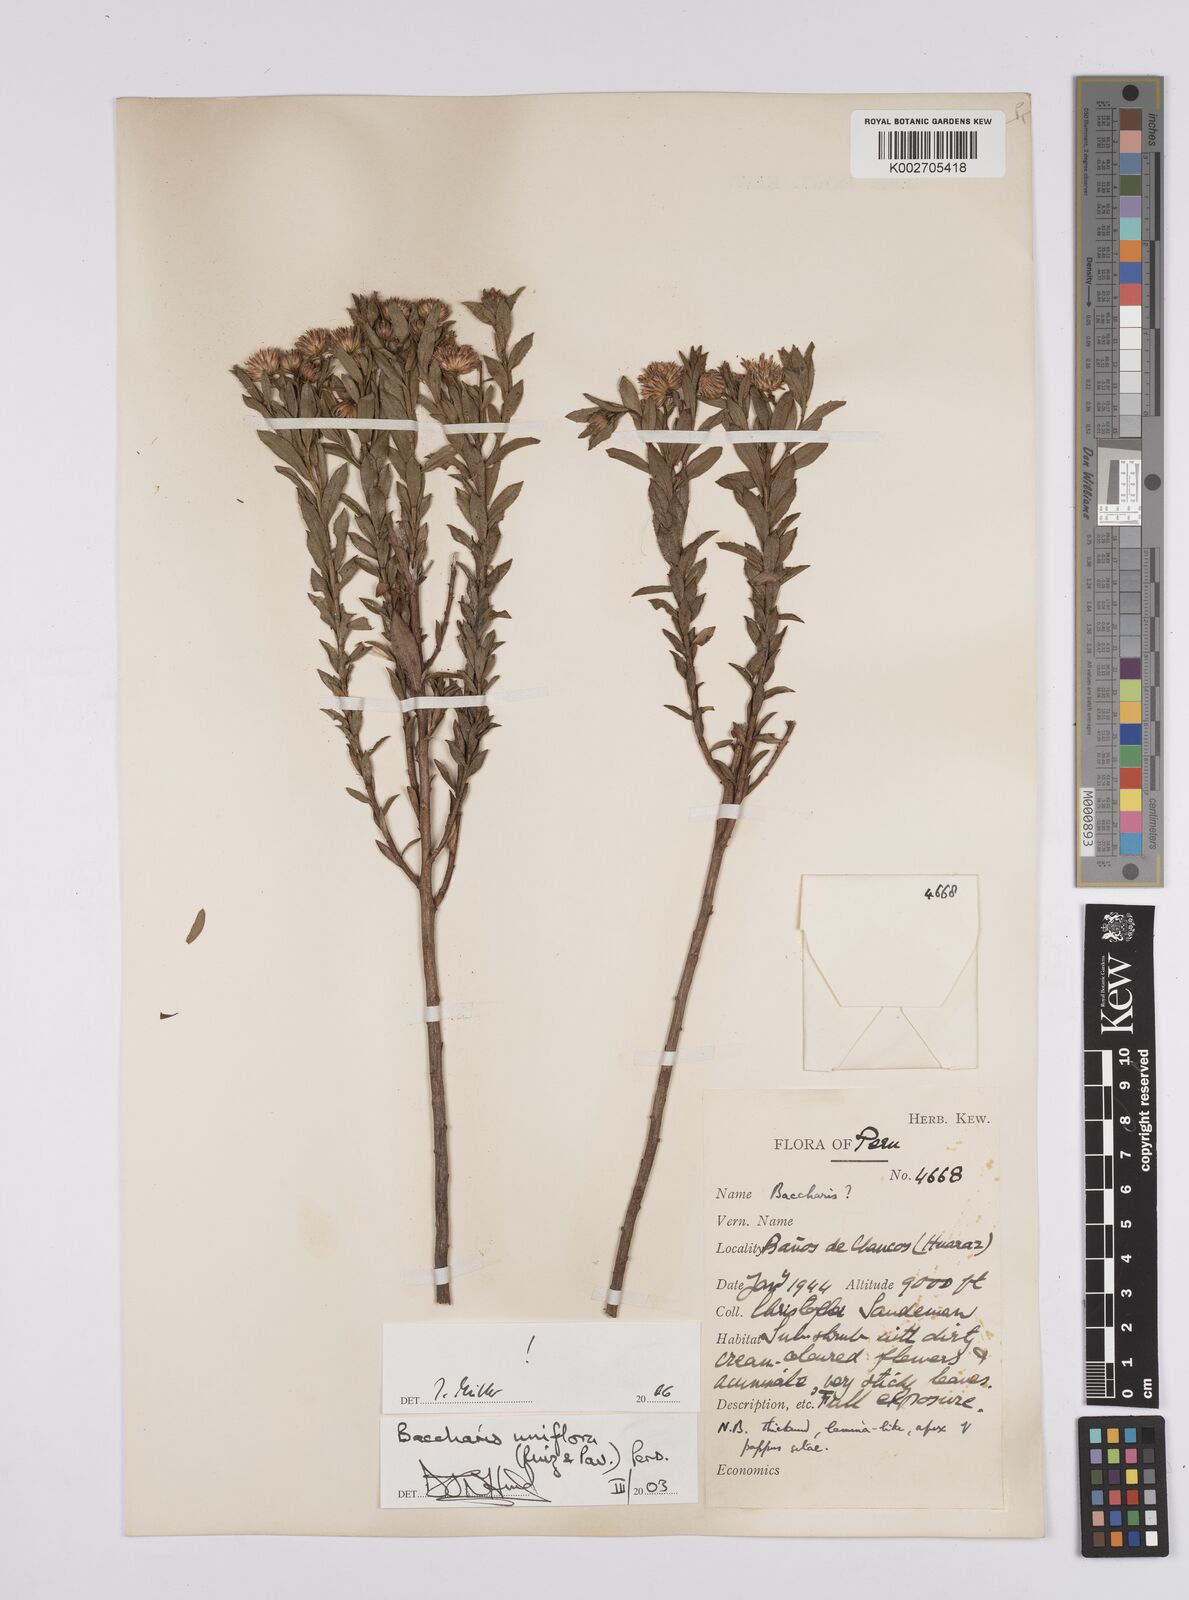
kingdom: Plantae
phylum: Tracheophyta
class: Magnoliopsida
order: Asterales
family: Asteraceae
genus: Baccharis
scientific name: Baccharis uniflora
